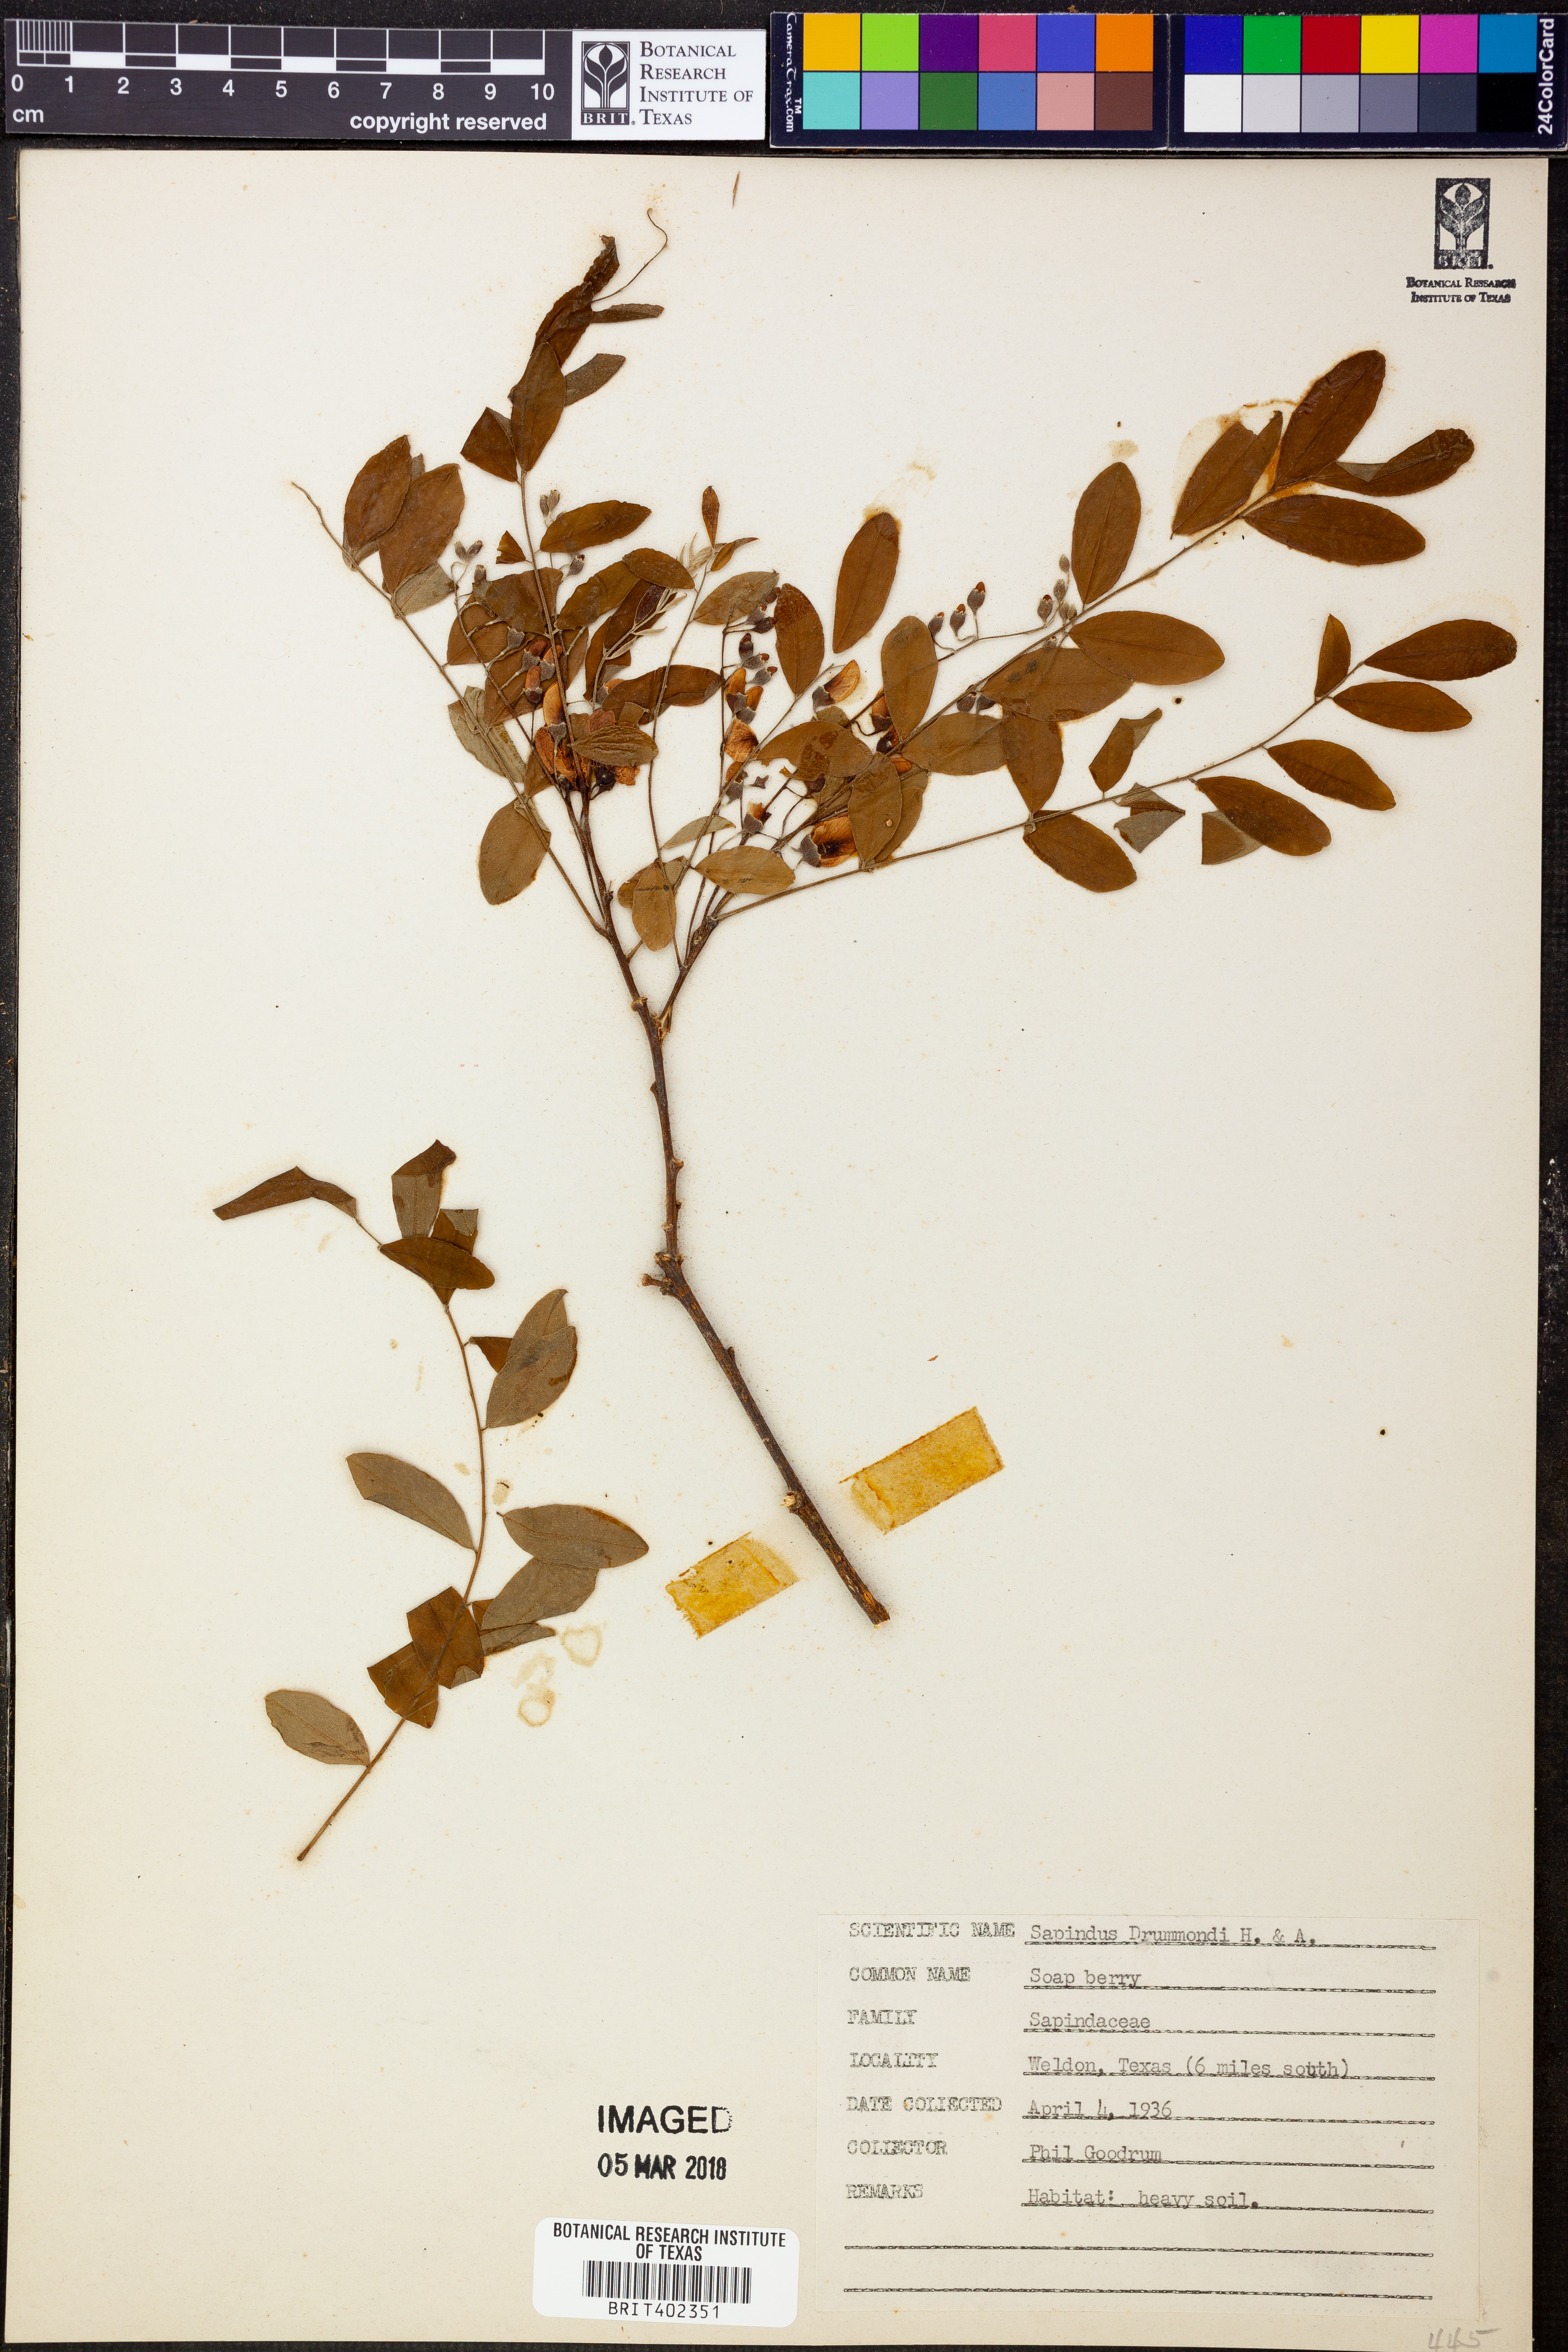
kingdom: Plantae
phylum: Tracheophyta
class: Magnoliopsida
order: Sapindales
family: Sapindaceae
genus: Sapindus
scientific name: Sapindus drummondii
